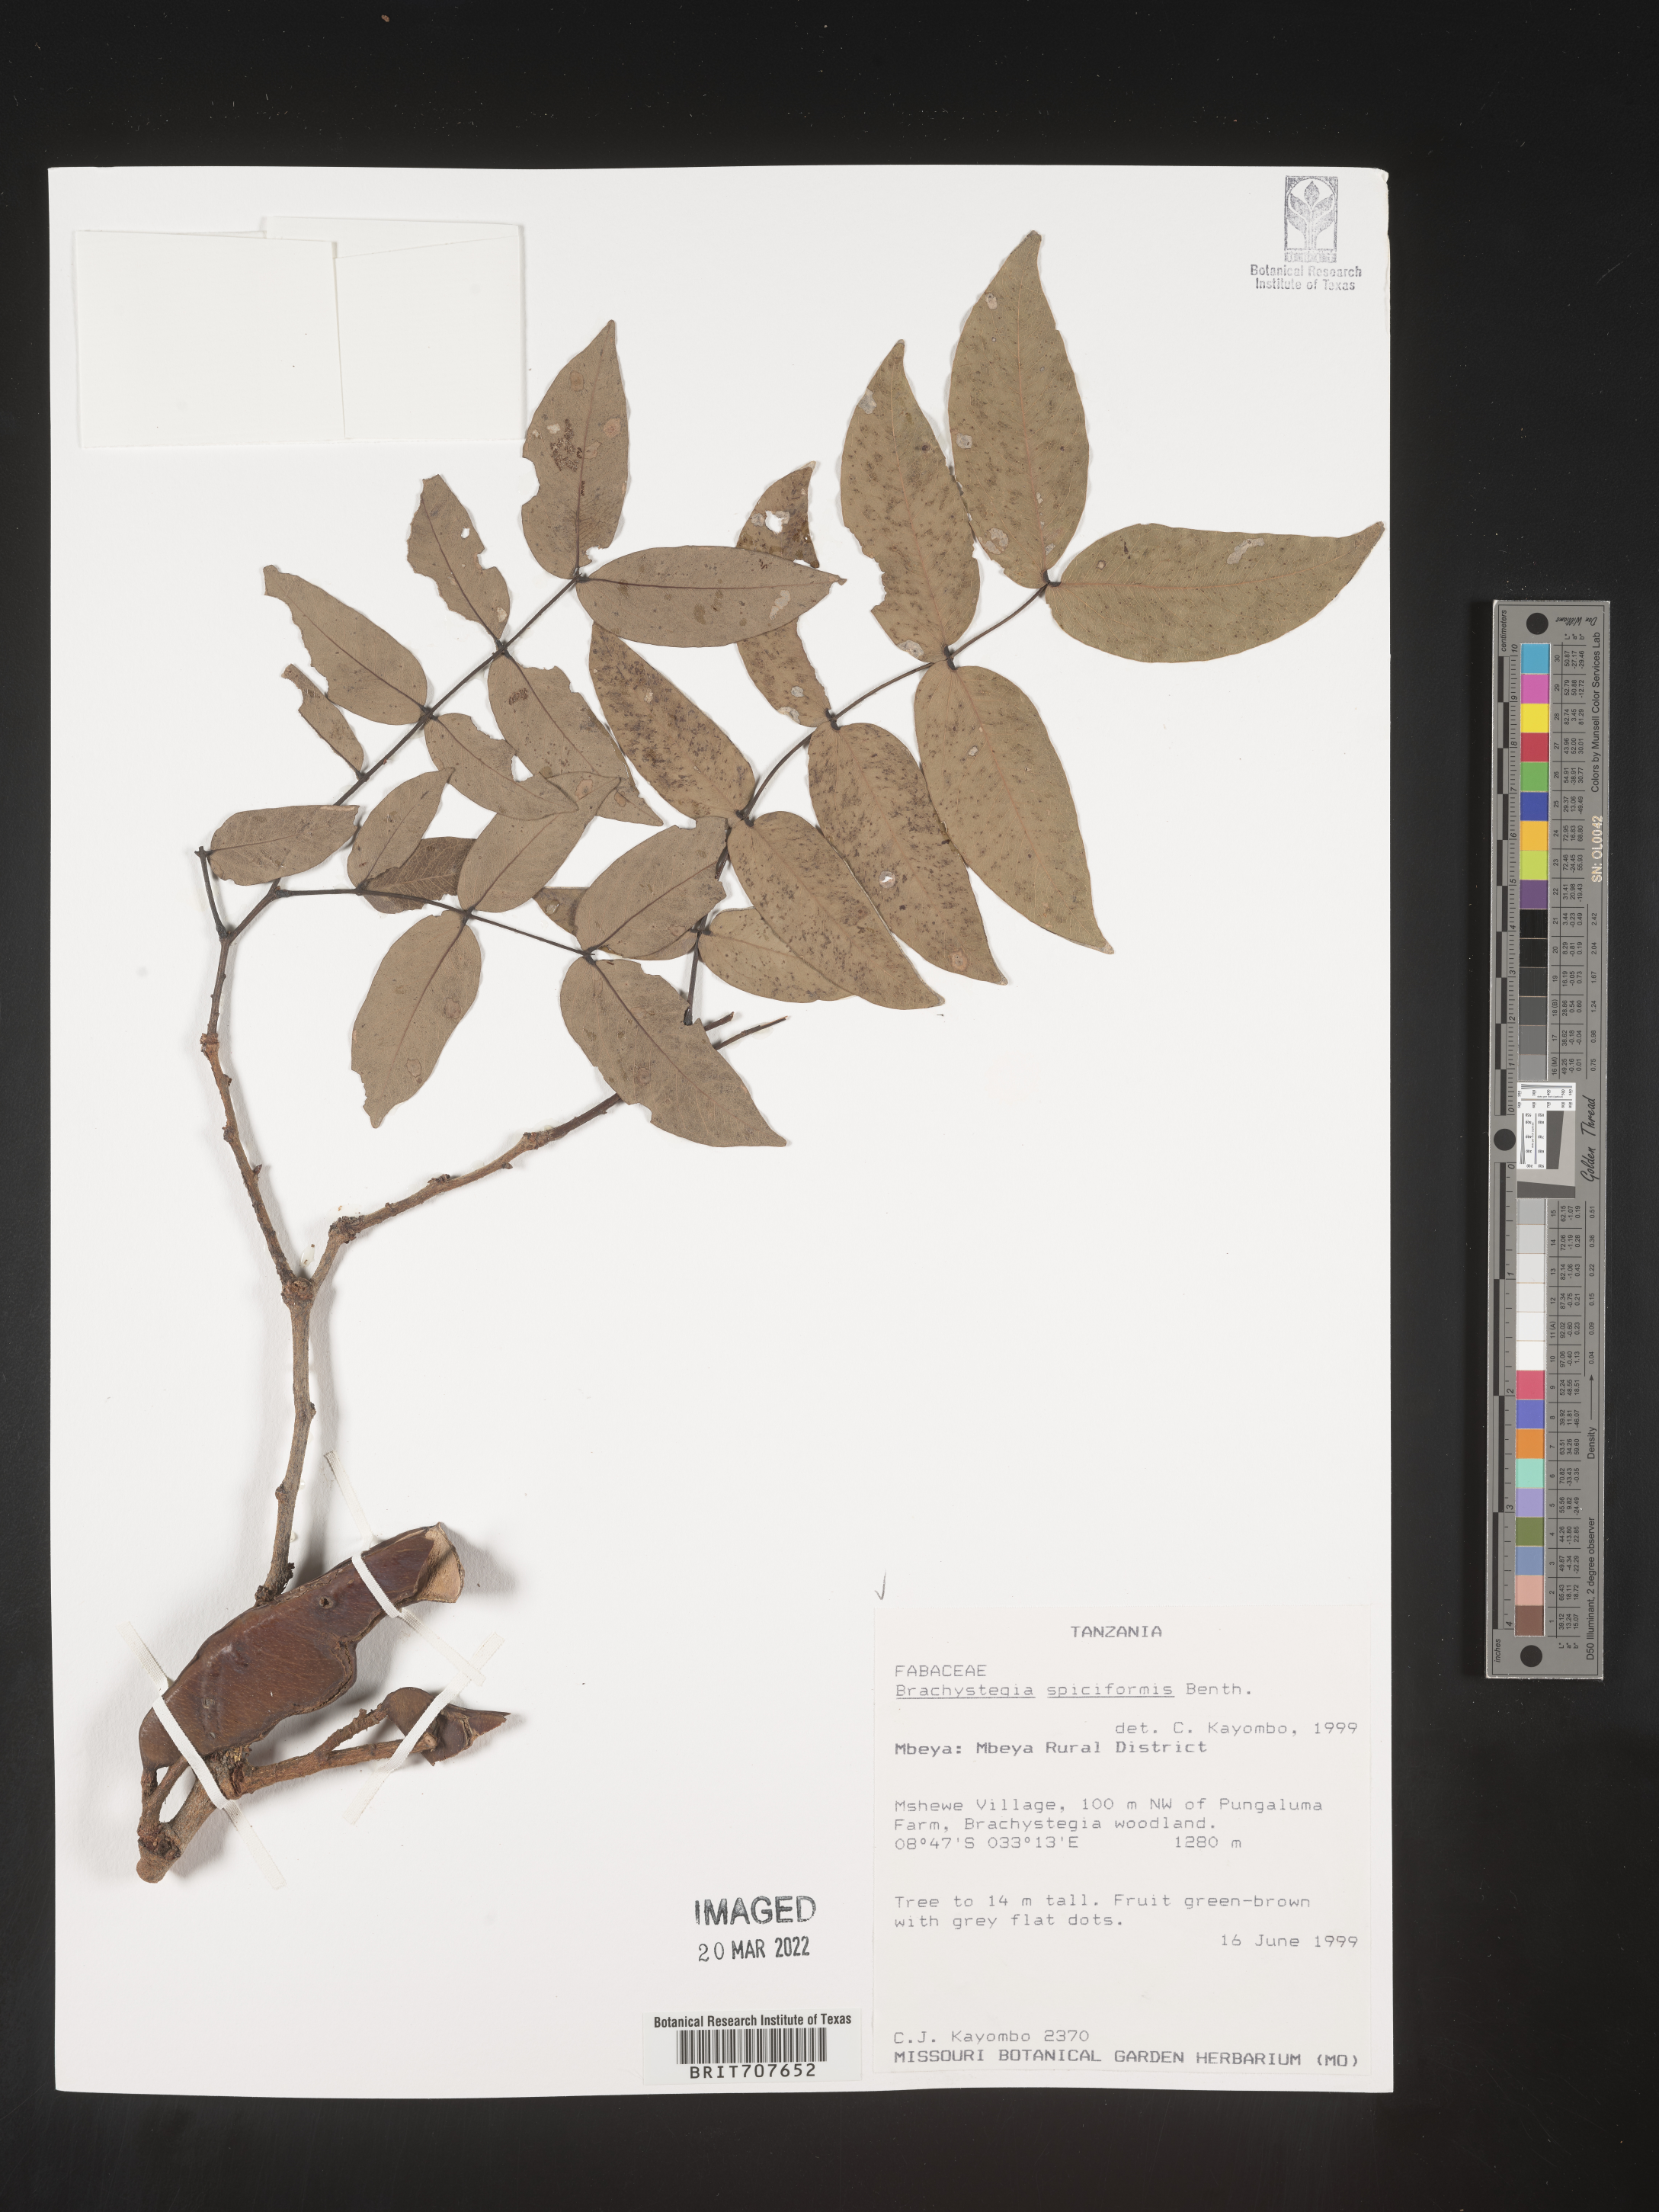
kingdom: Plantae
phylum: Tracheophyta
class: Magnoliopsida
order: Fabales
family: Fabaceae
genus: Brachystegia
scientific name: Brachystegia
